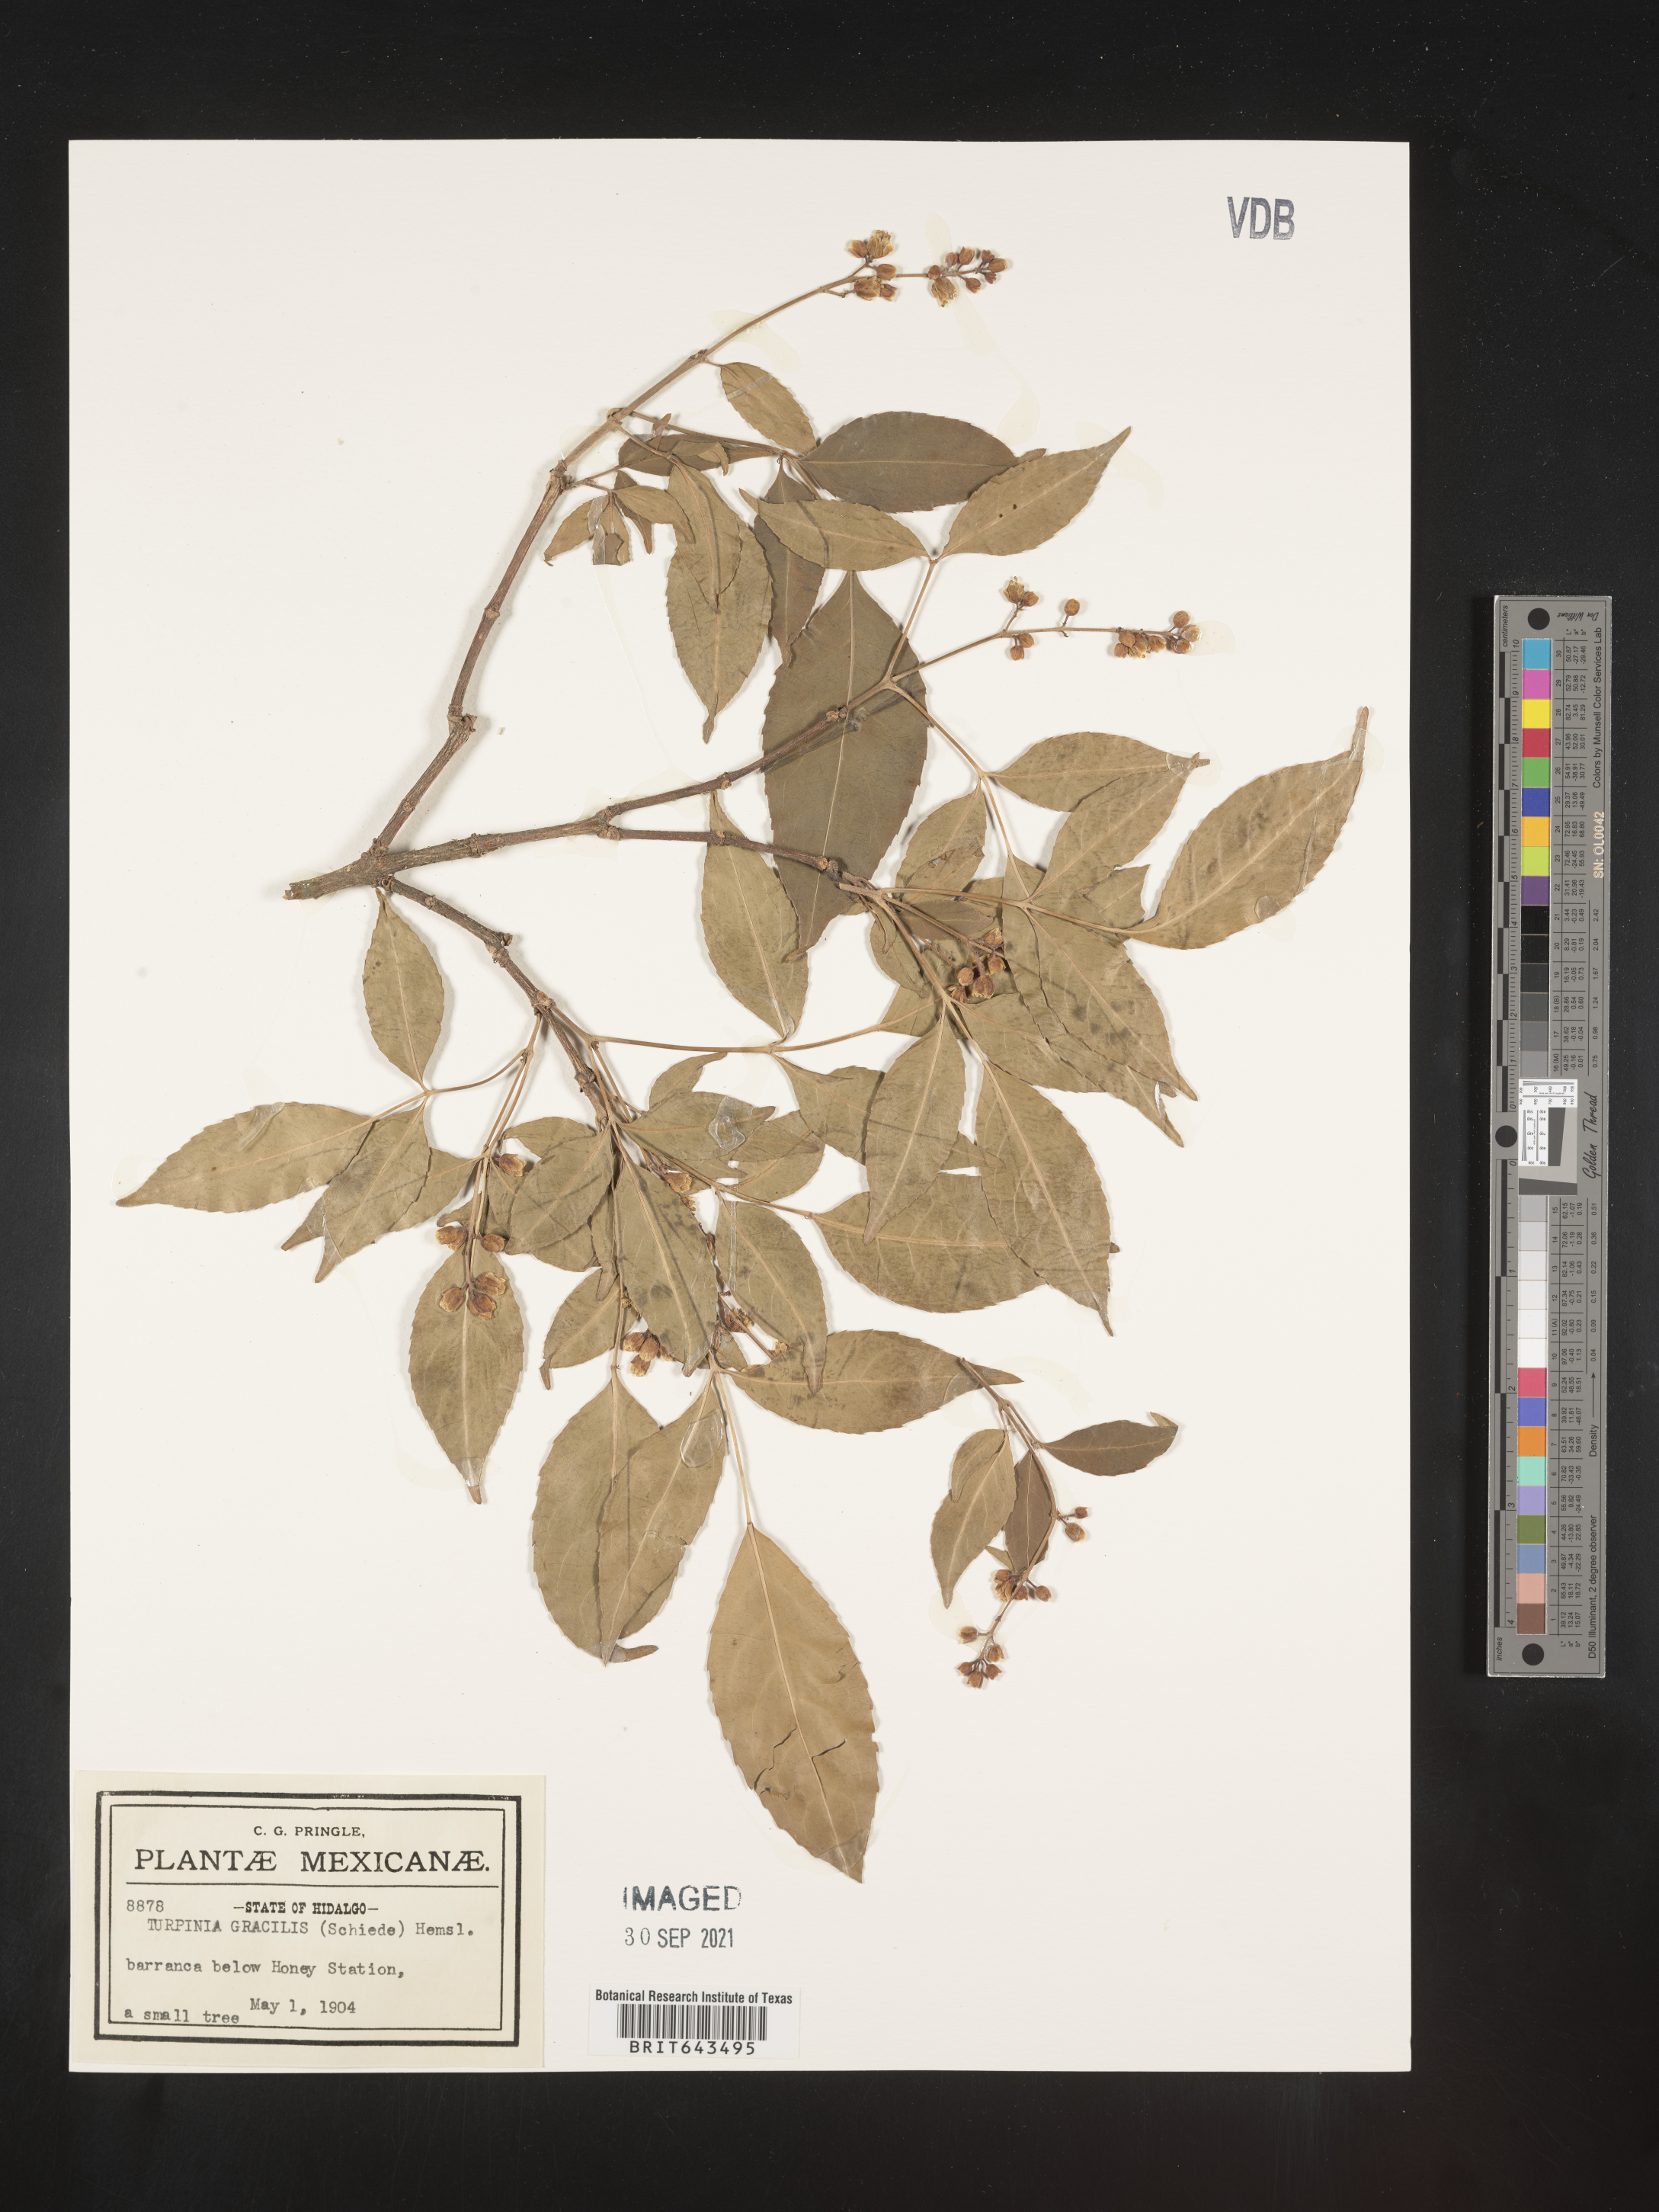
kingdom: Plantae
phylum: Tracheophyta
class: Magnoliopsida
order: Crossosomatales
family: Staphyleaceae
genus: Turpinia
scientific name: Turpinia
